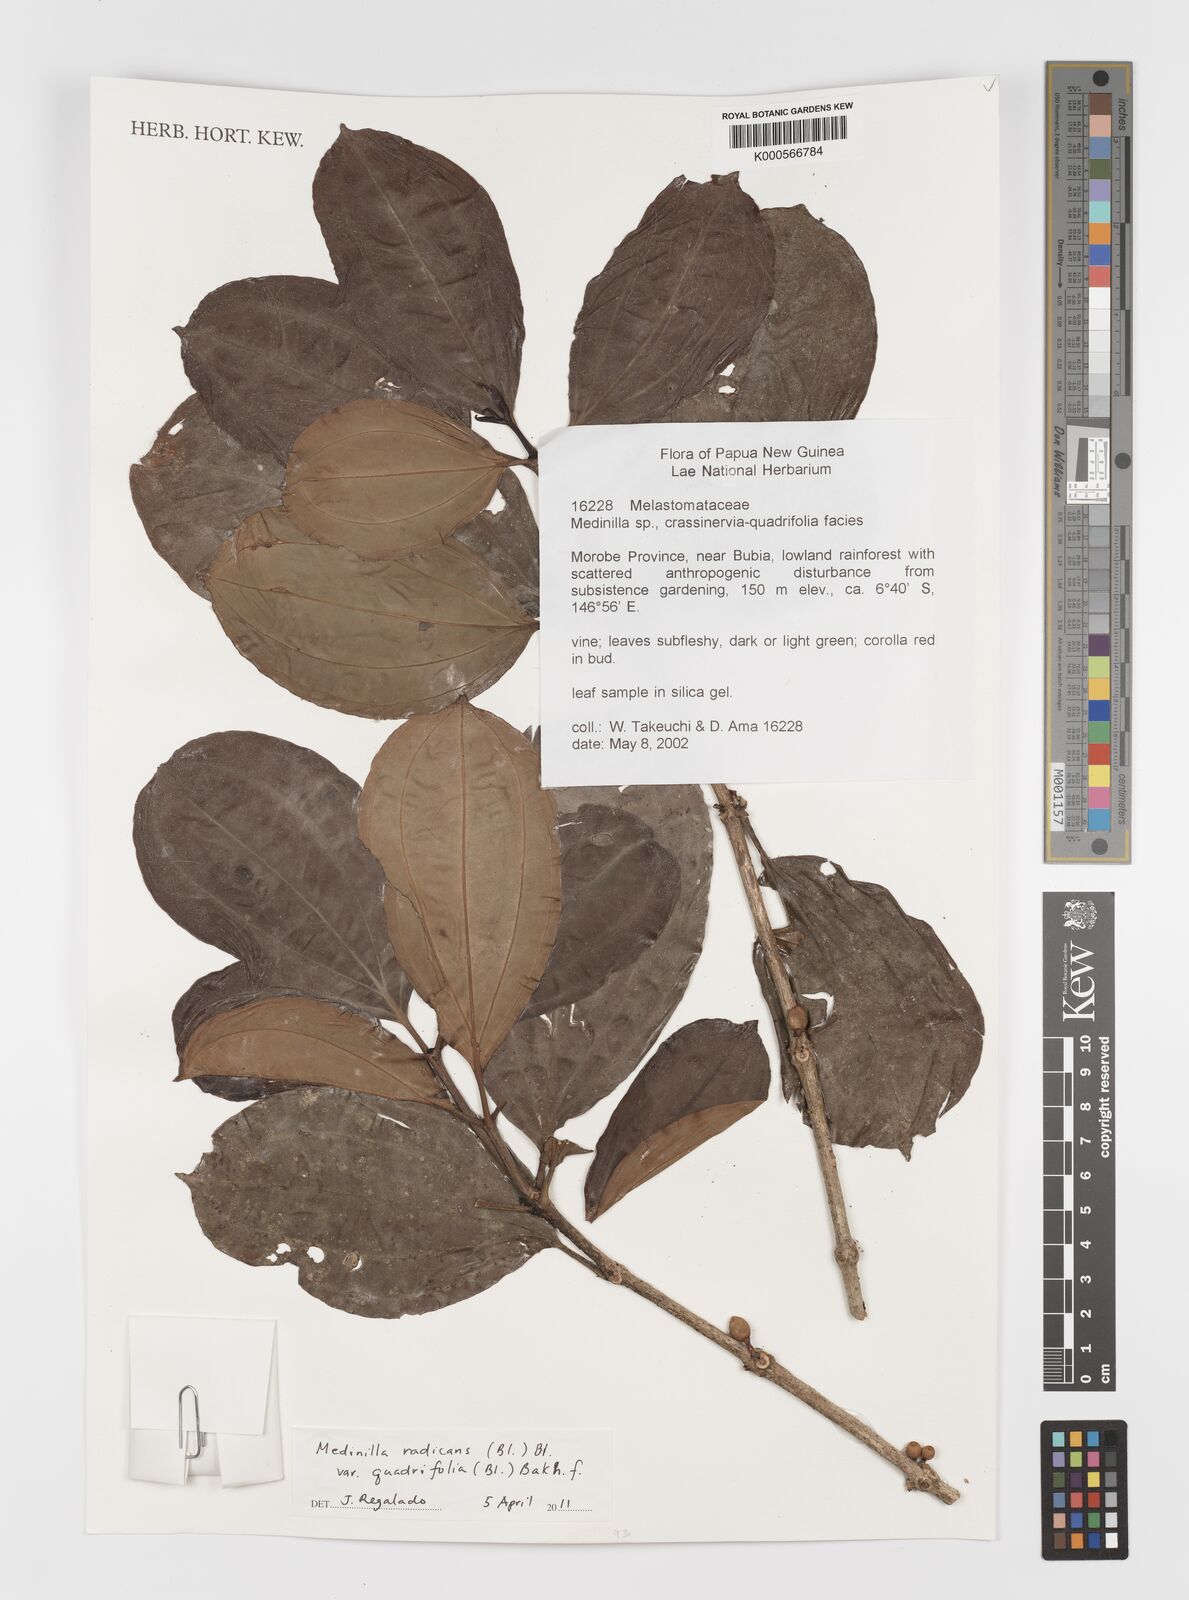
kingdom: Plantae
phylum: Tracheophyta
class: Magnoliopsida
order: Myrtales
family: Melastomataceae
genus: Medinilla
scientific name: Medinilla radicans
